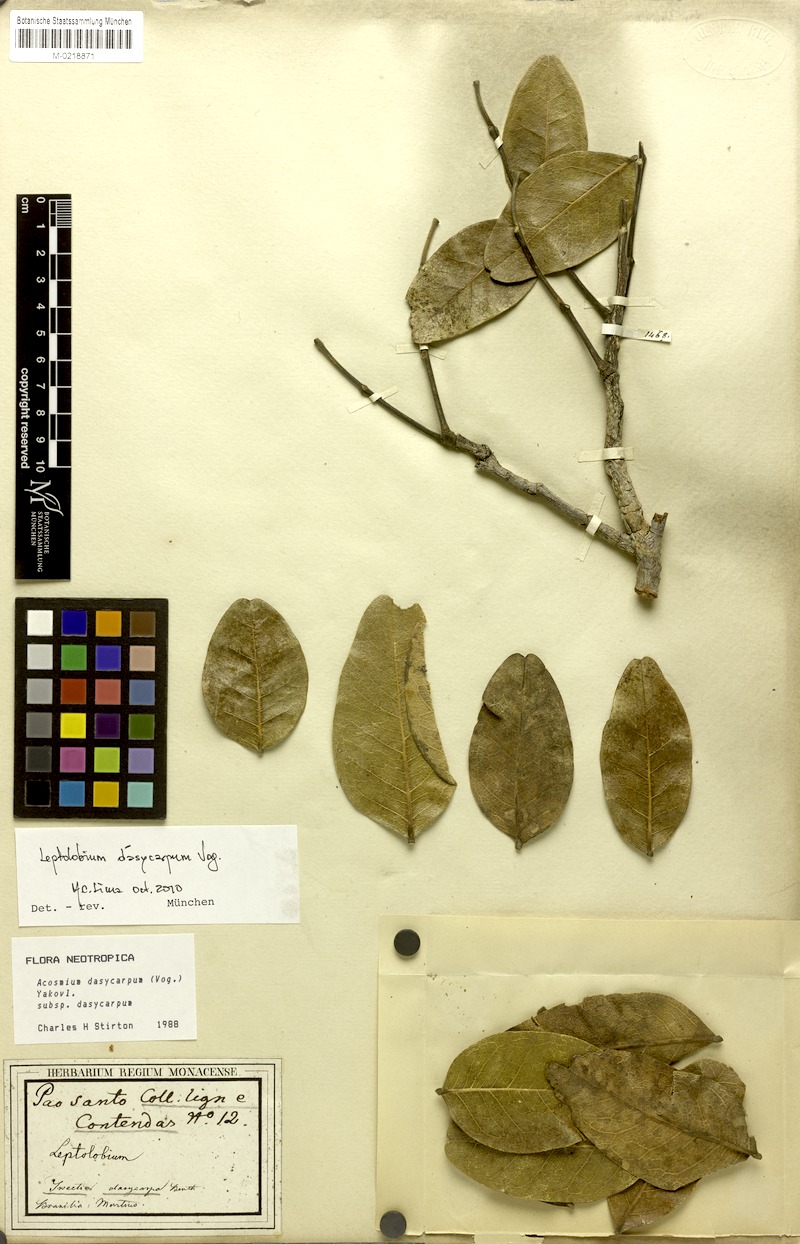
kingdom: Plantae
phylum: Tracheophyta
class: Magnoliopsida
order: Fabales
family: Fabaceae
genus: Leptolobium
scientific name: Leptolobium dasycarpum
